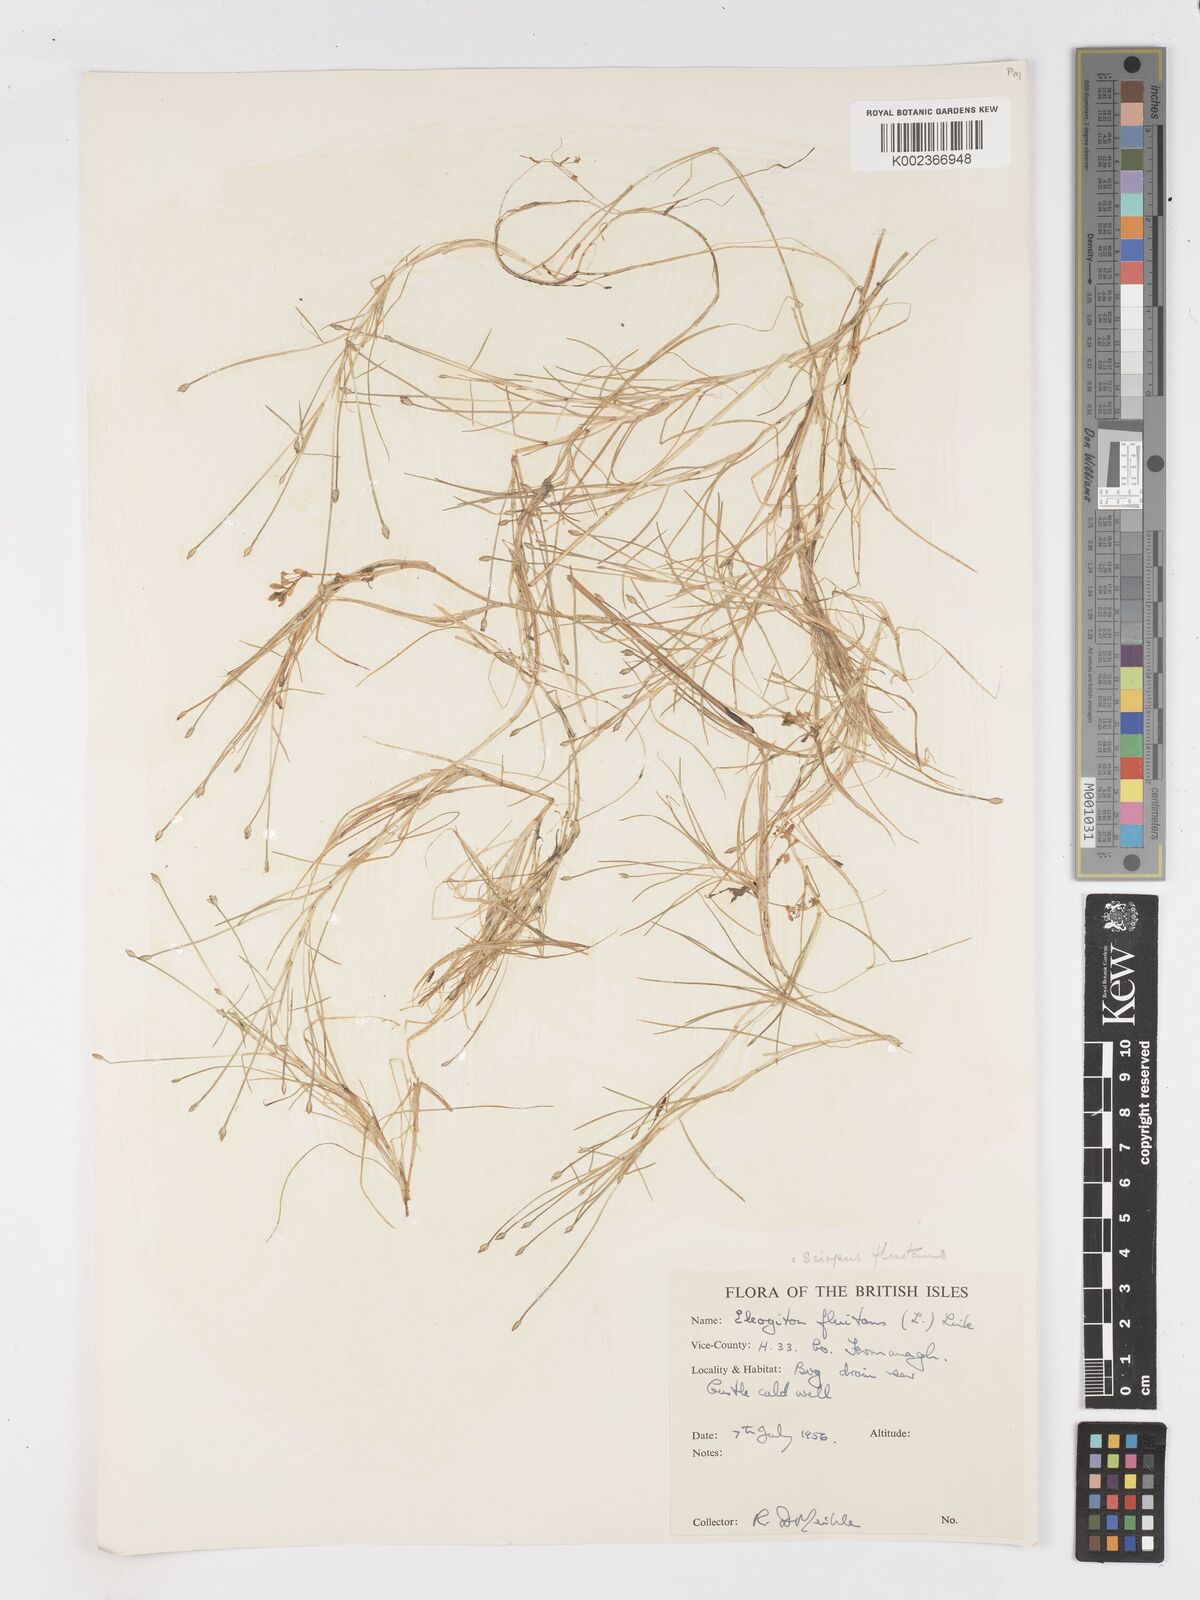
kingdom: Plantae
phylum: Tracheophyta
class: Liliopsida
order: Poales
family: Cyperaceae
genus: Isolepis
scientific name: Isolepis fluitans
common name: Floating club-rush
